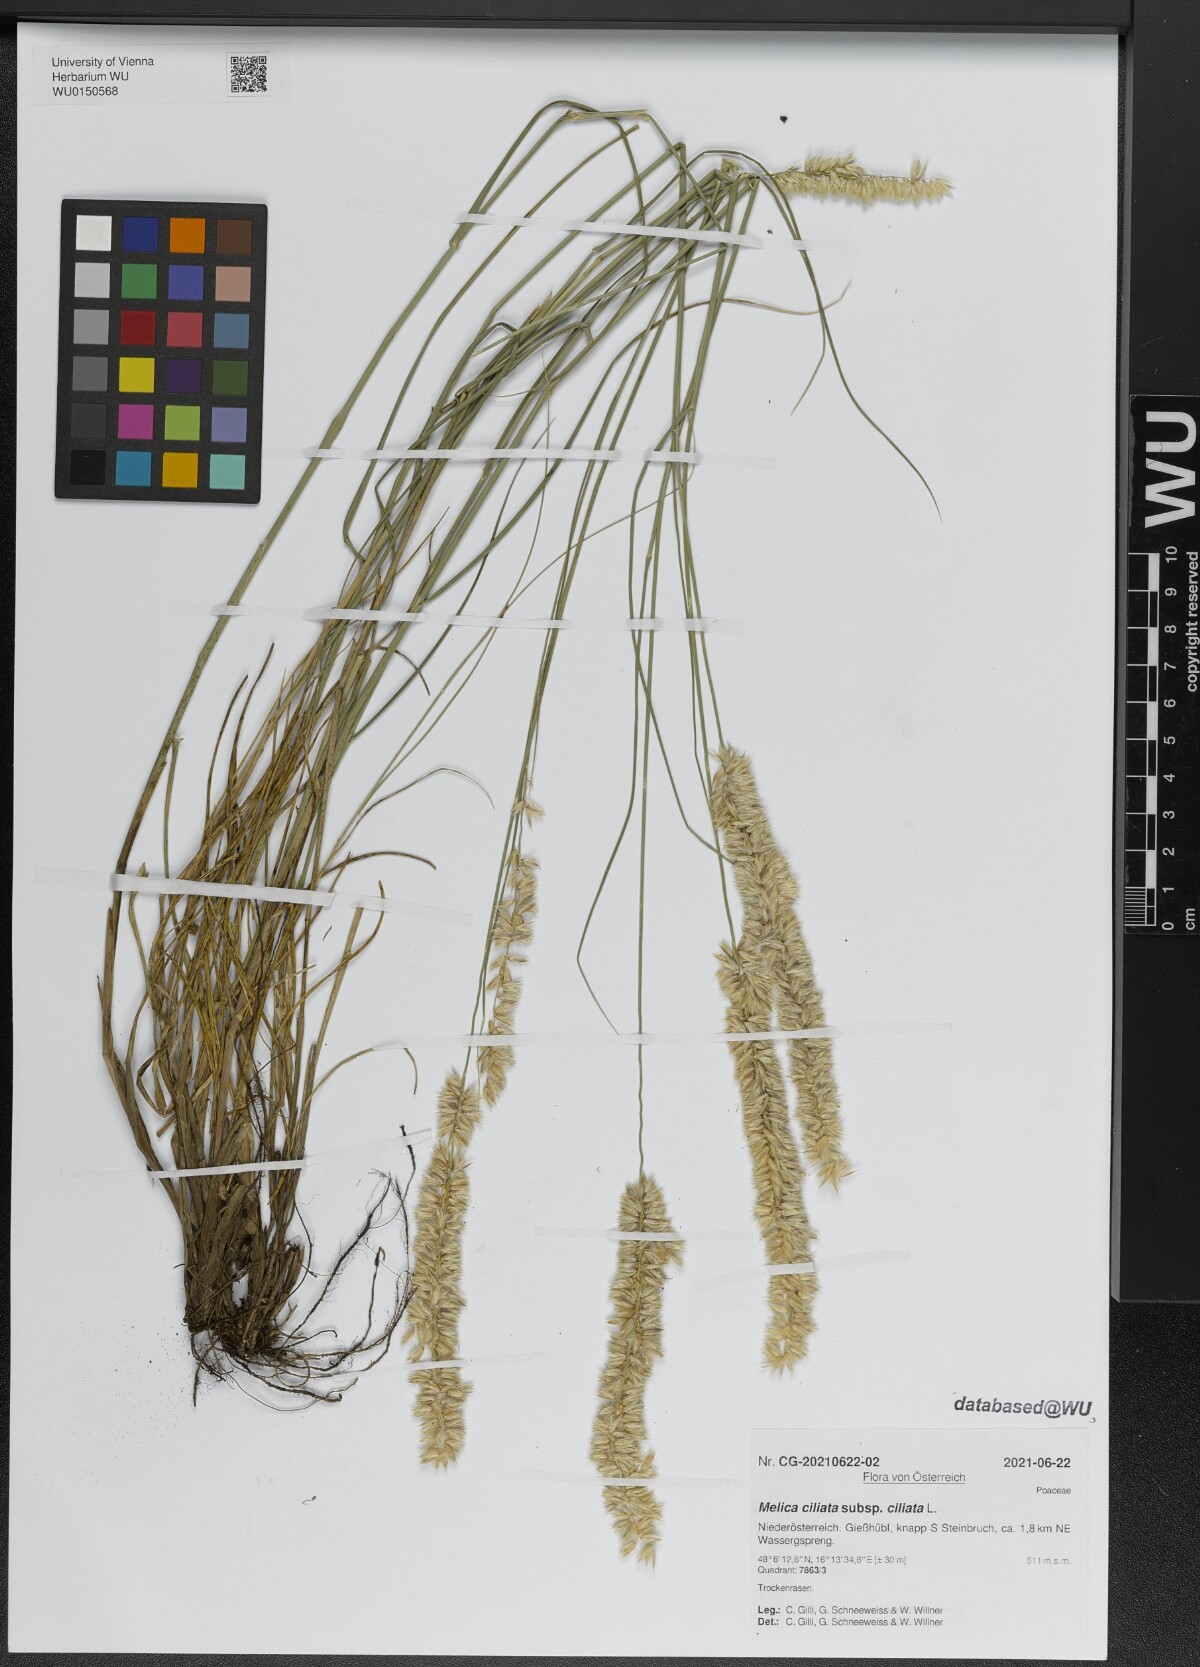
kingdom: Plantae
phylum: Tracheophyta
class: Liliopsida
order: Poales
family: Poaceae
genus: Melica
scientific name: Melica ciliata
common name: Hairy melicgrass
